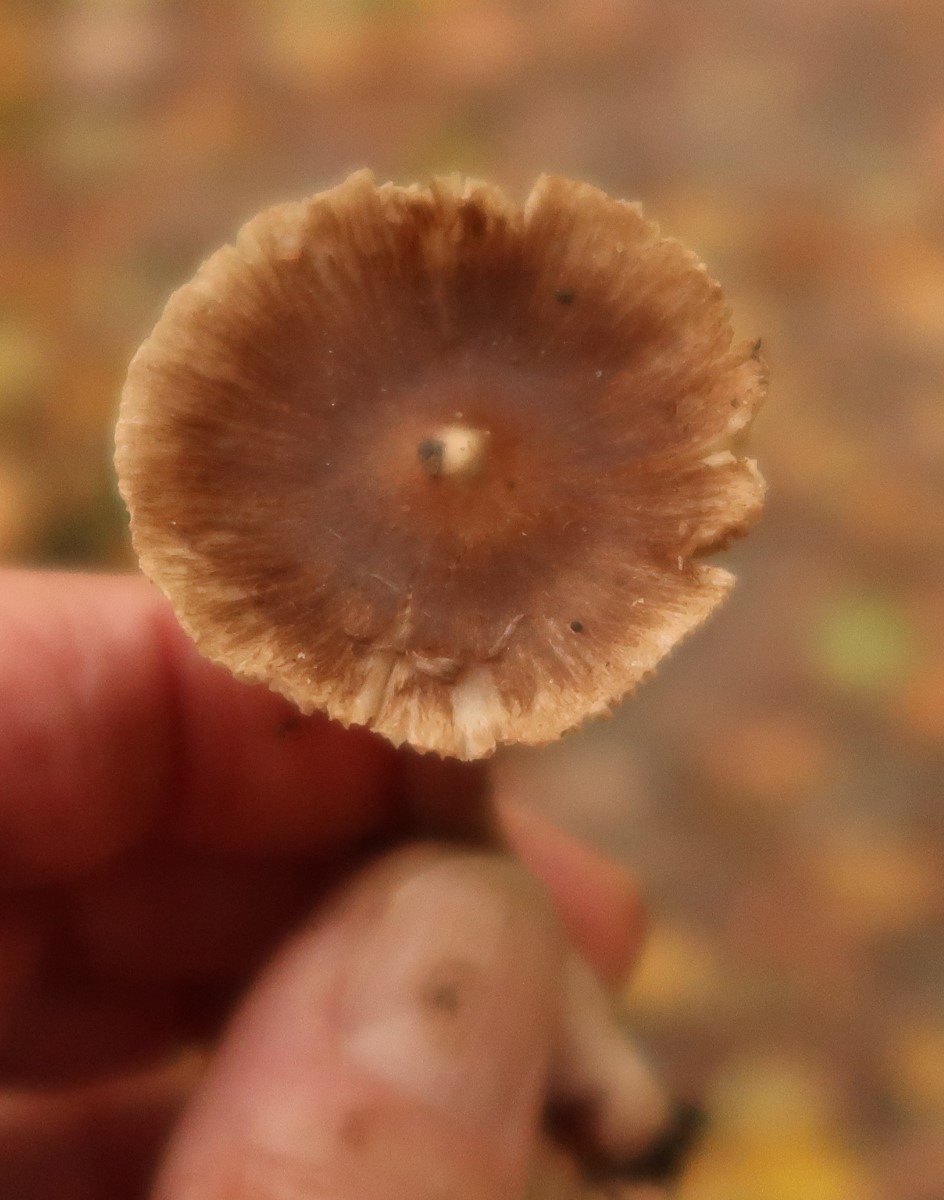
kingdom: Fungi
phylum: Basidiomycota
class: Agaricomycetes
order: Agaricales
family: Inocybaceae
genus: Inocybe
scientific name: Inocybe
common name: trævlhat
